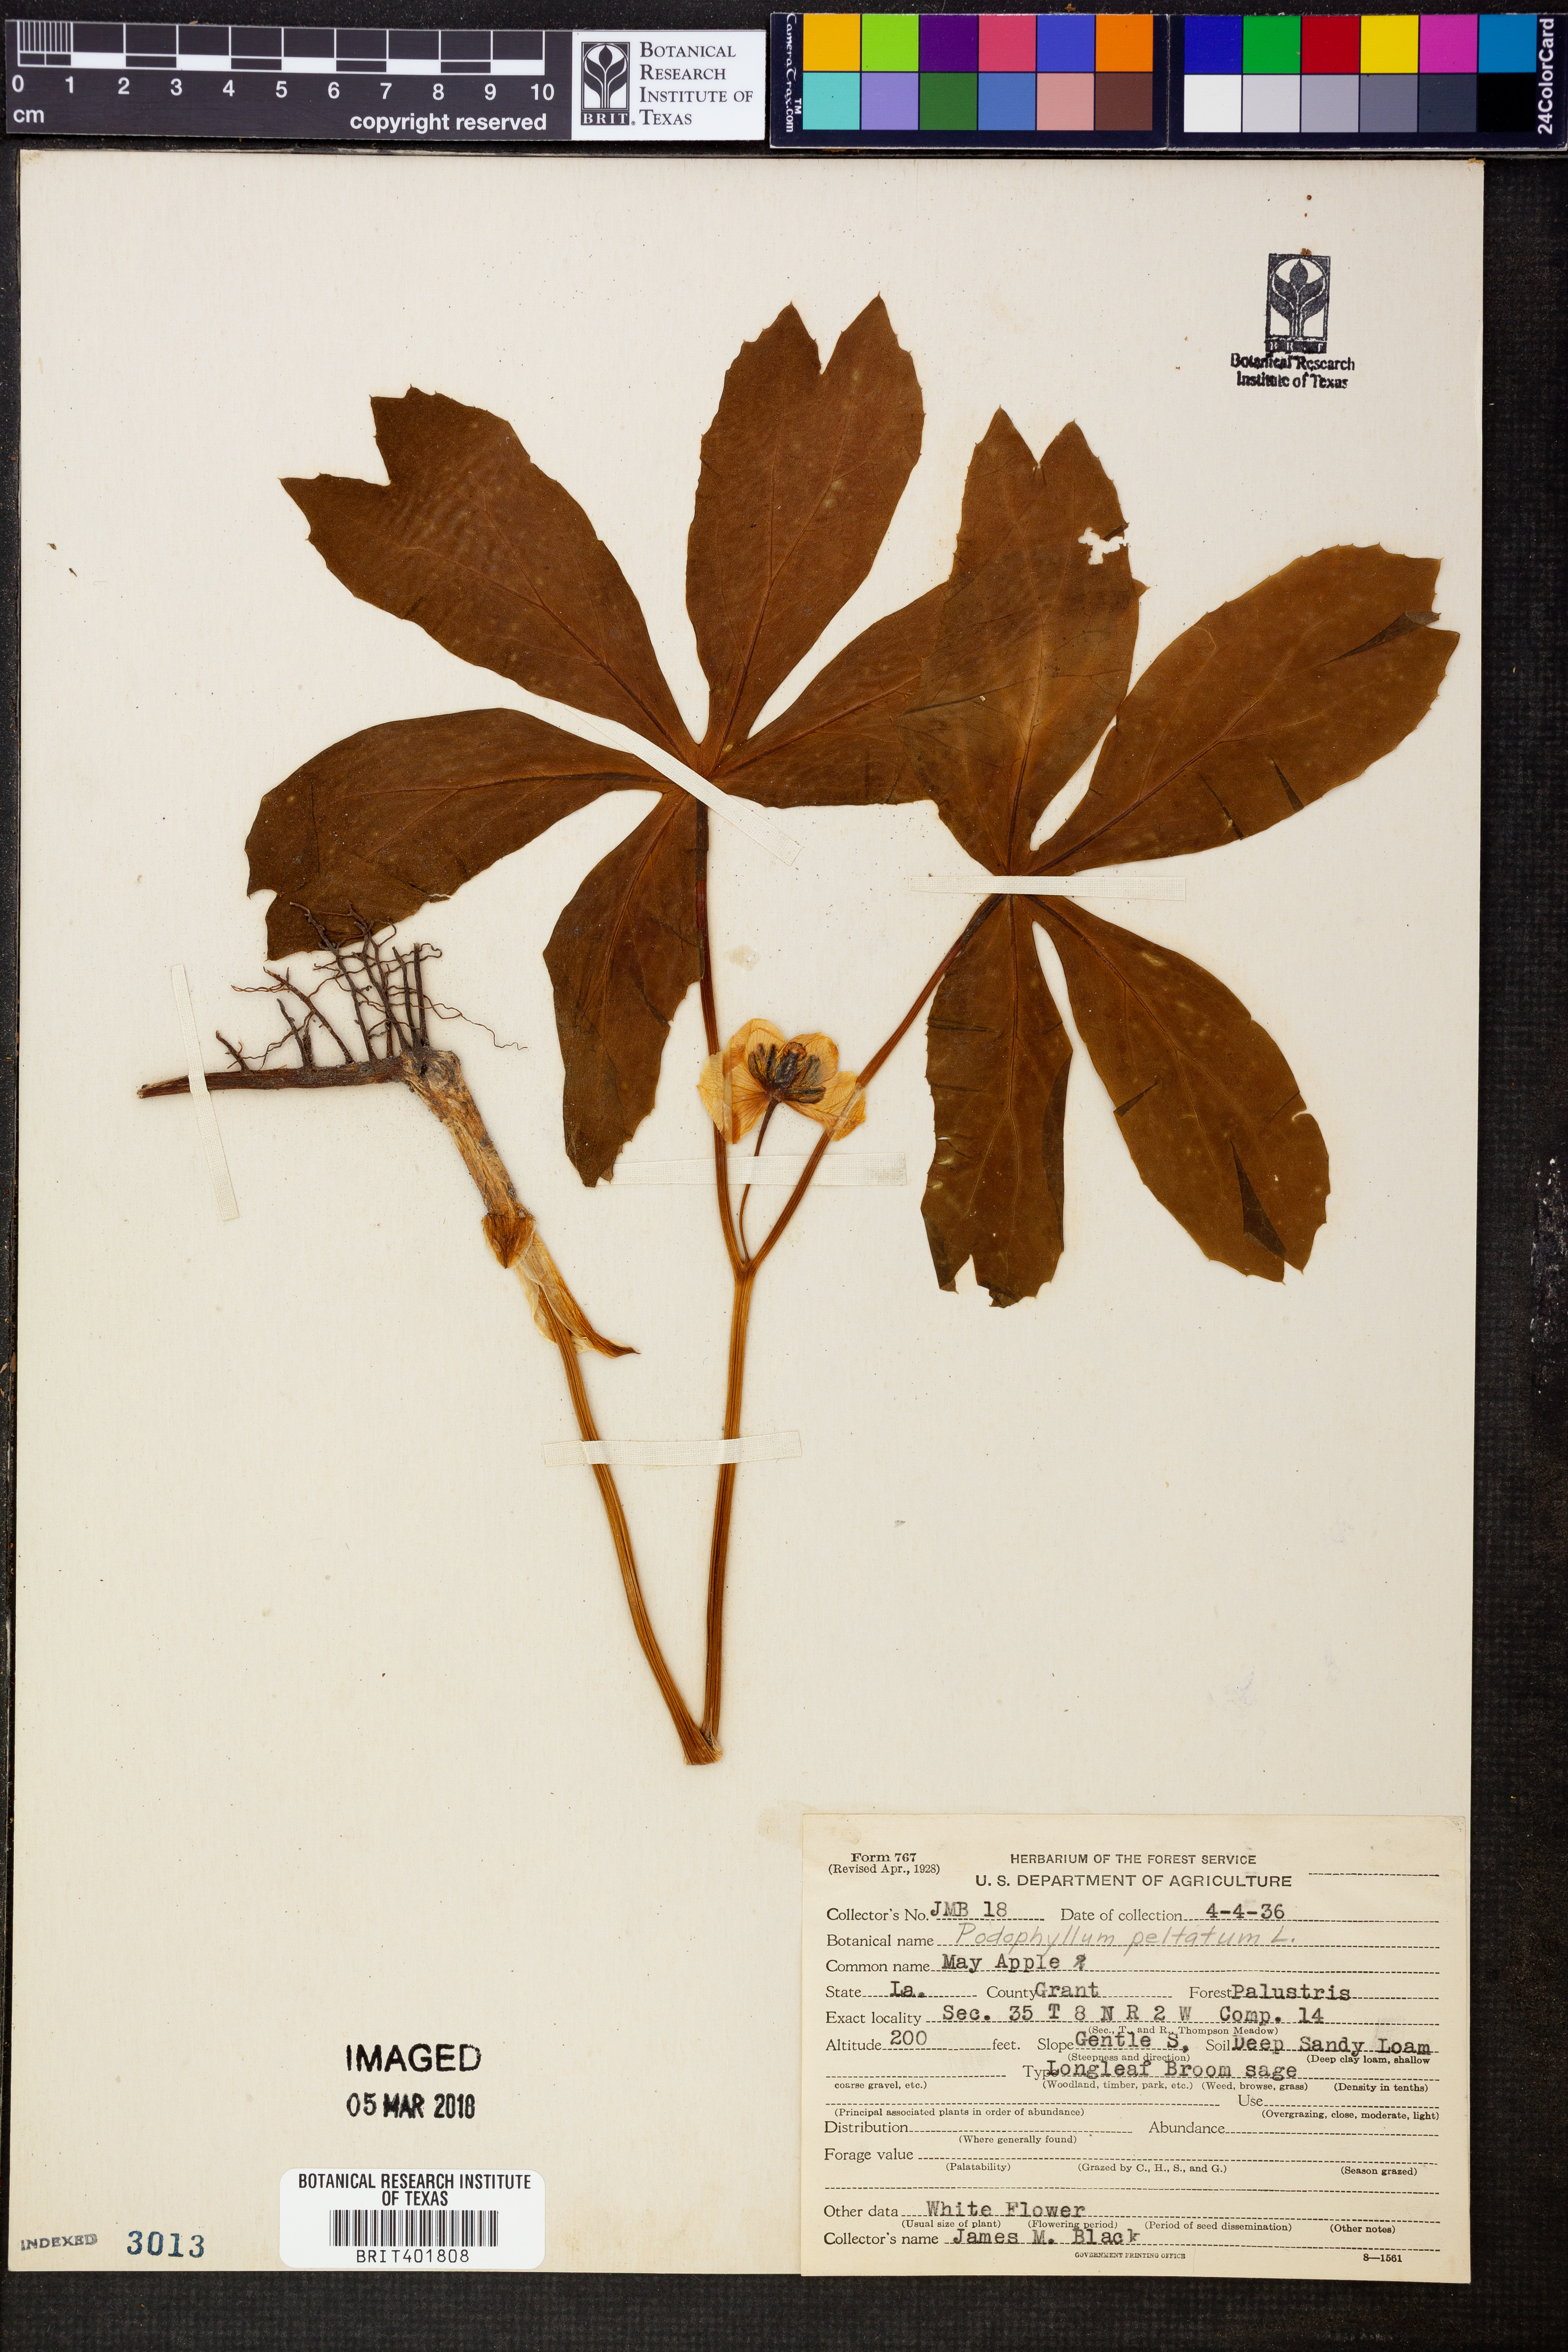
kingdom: Plantae
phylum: Tracheophyta
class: Magnoliopsida
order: Ranunculales
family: Berberidaceae
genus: Podophyllum
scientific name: Podophyllum peltatum
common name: Wild mandrake
